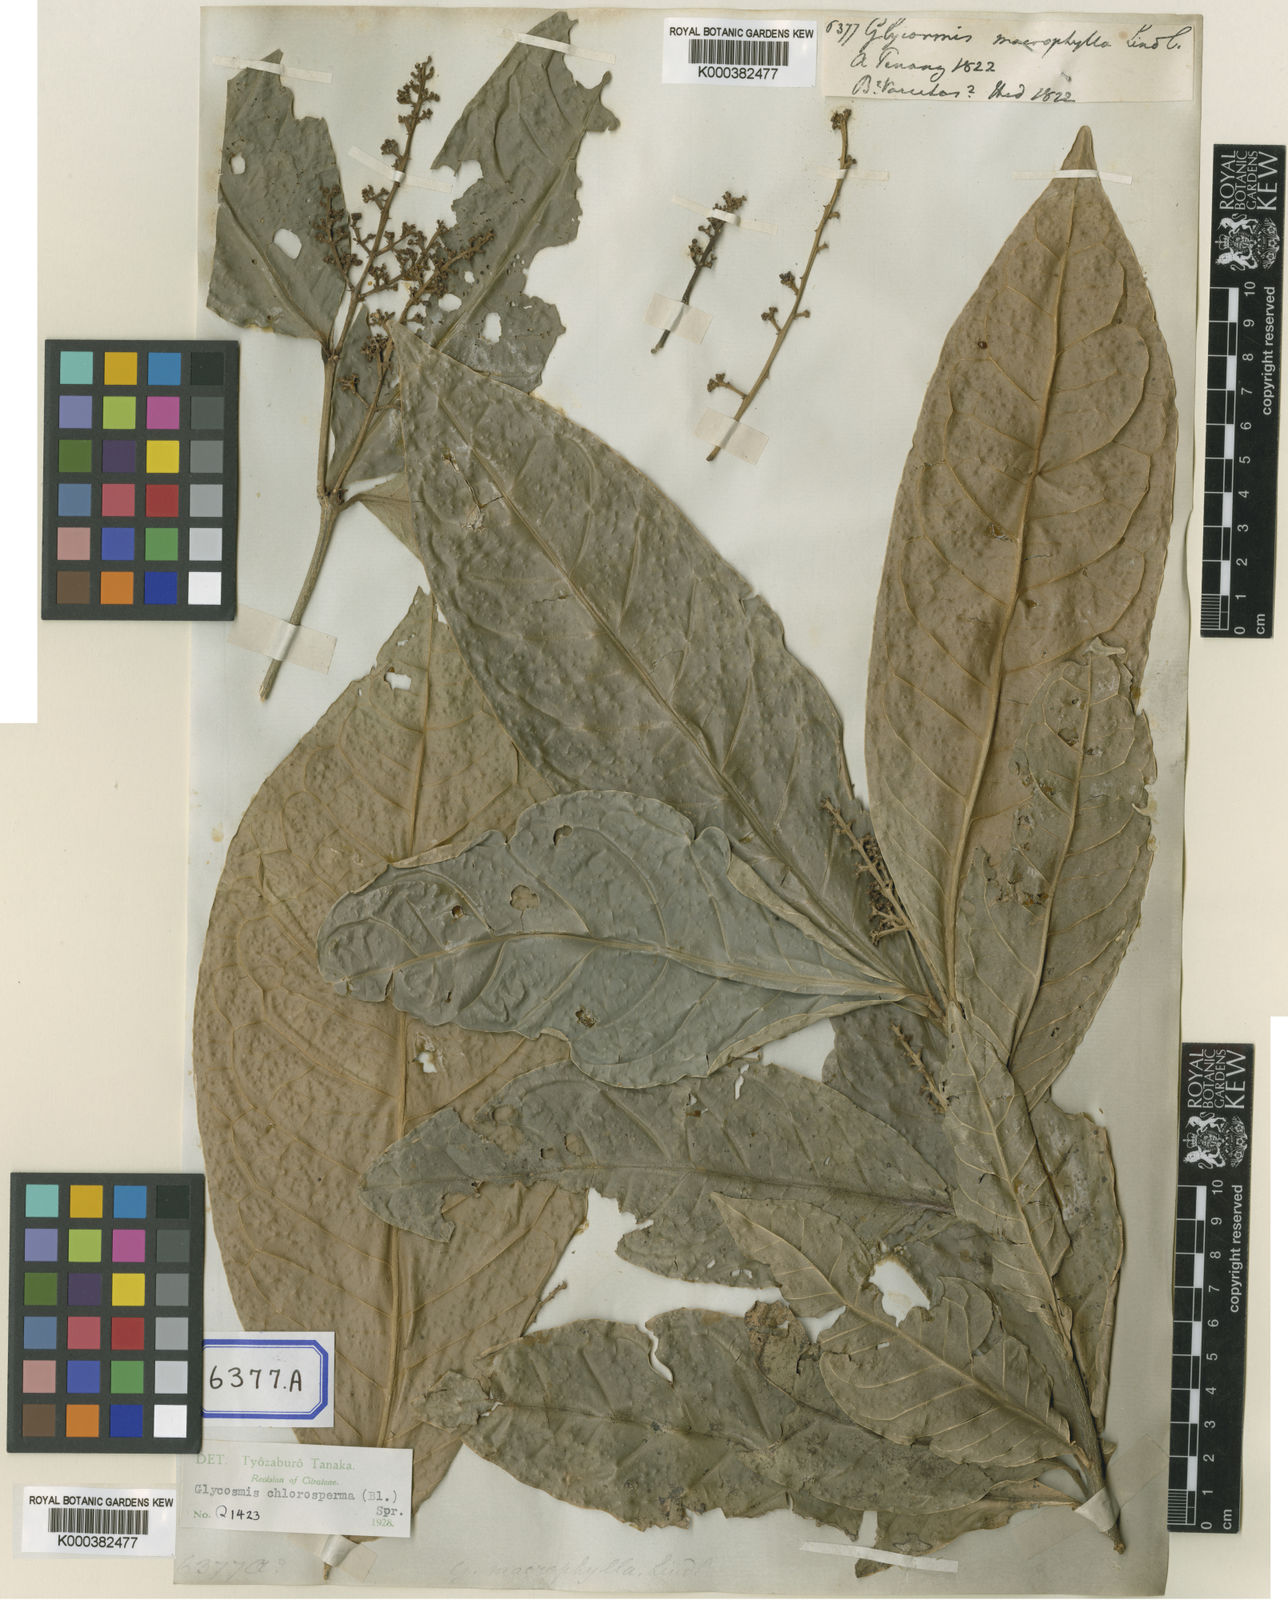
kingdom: Plantae
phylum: Tracheophyta
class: Magnoliopsida
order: Sapindales
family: Rutaceae
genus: Glycosmis
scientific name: Glycosmis chlorosperma
